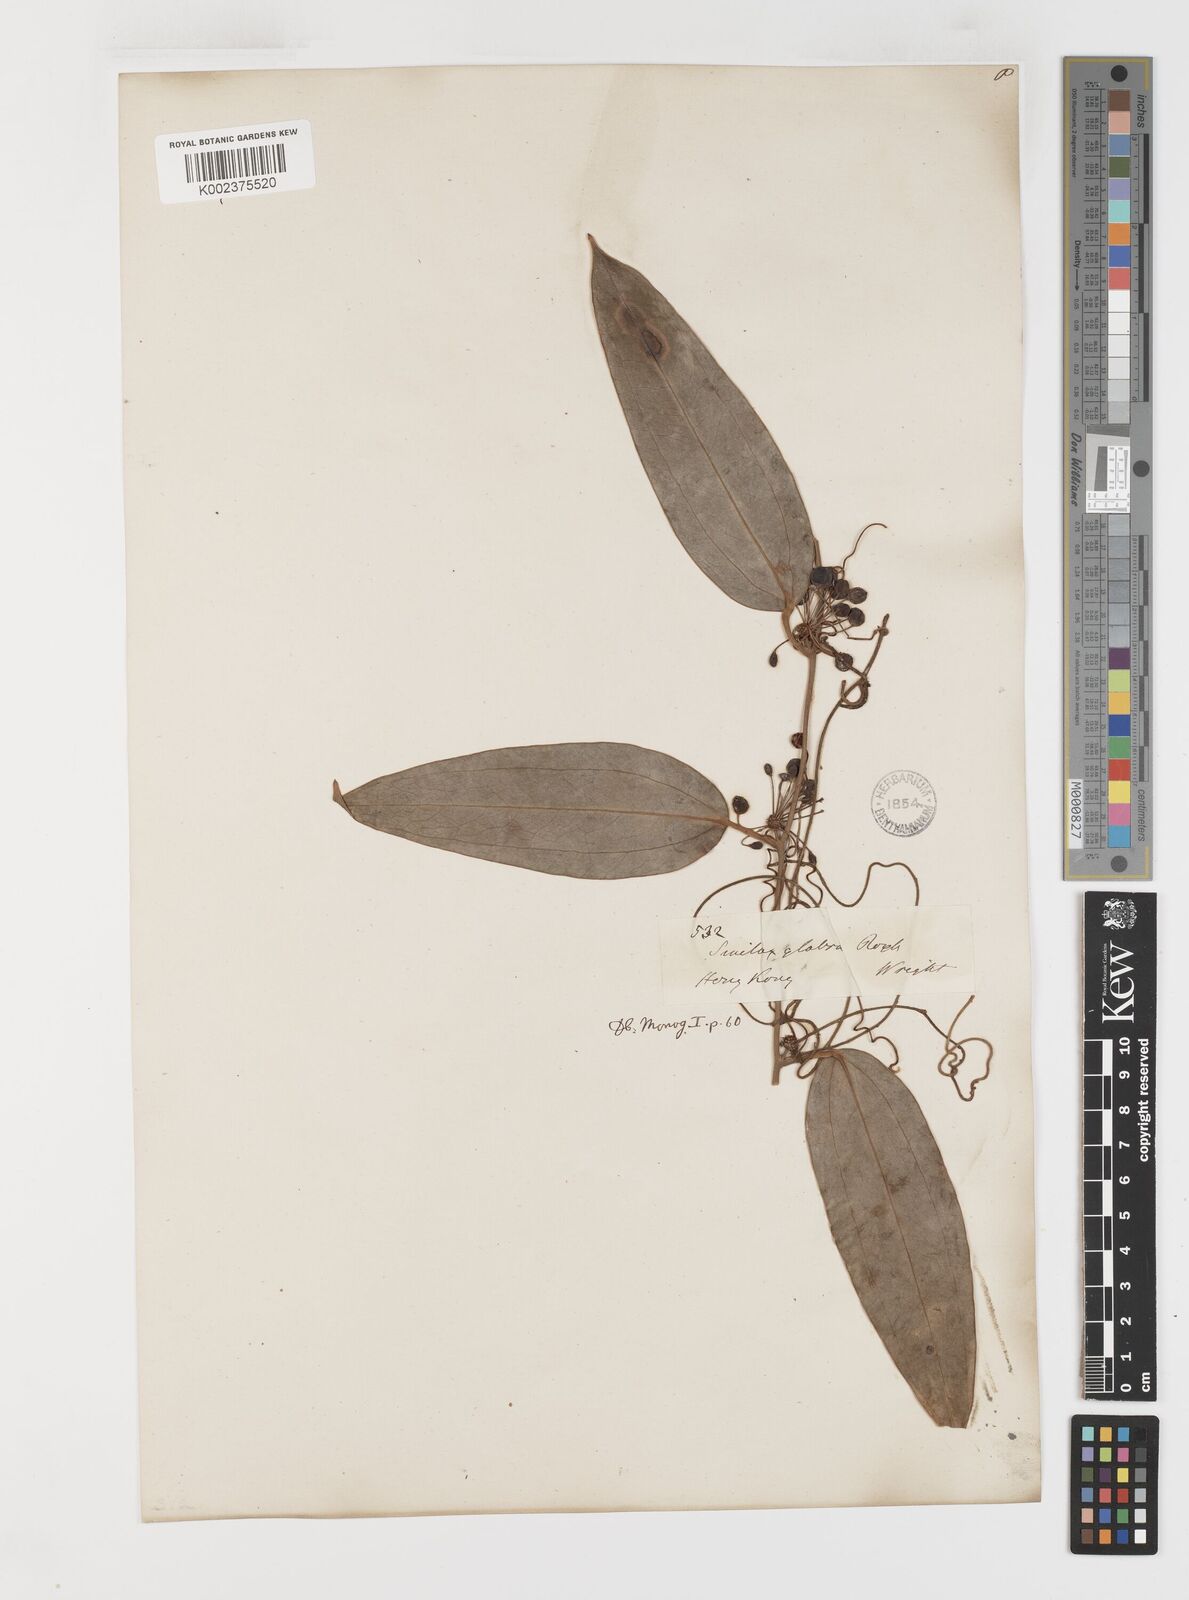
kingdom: Plantae
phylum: Tracheophyta
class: Liliopsida
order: Liliales
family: Smilacaceae
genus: Smilax
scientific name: Smilax glabra
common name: Chinese smilax
